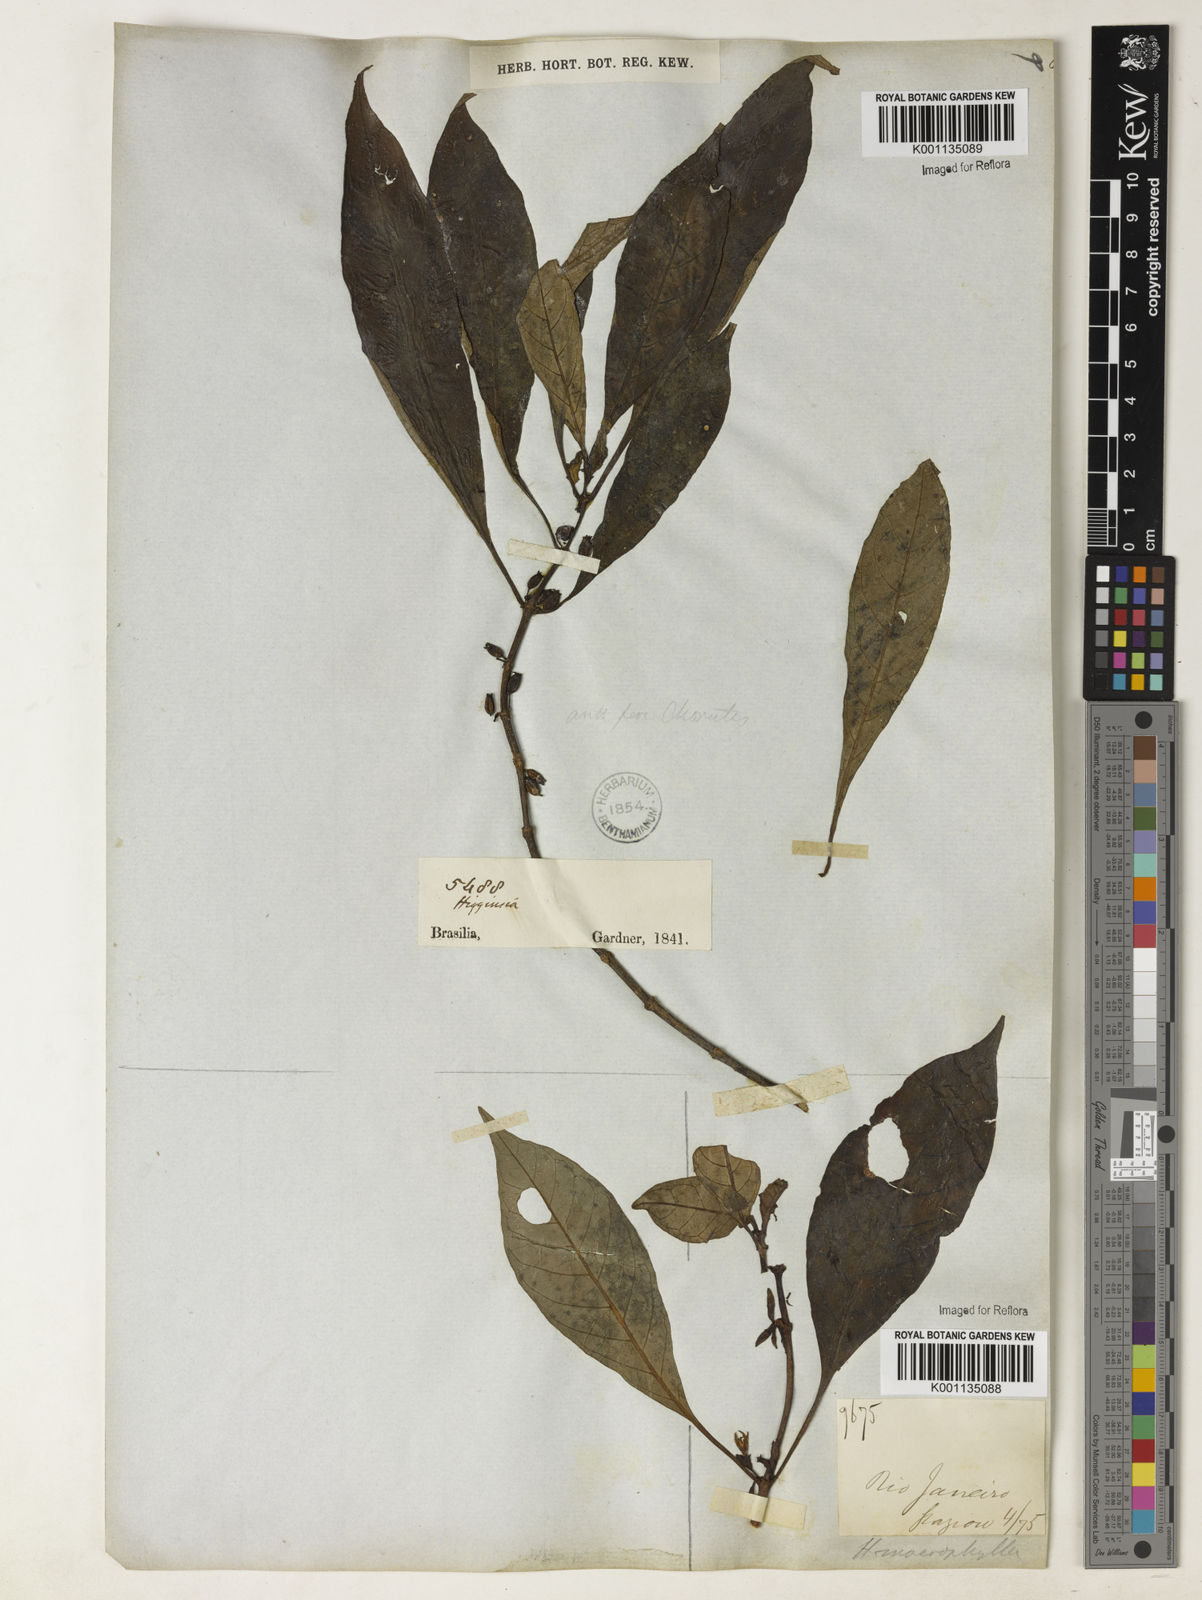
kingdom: Plantae
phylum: Tracheophyta
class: Magnoliopsida
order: Gentianales
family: Rubiaceae
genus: Hoffmannia
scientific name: Hoffmannia peckii
